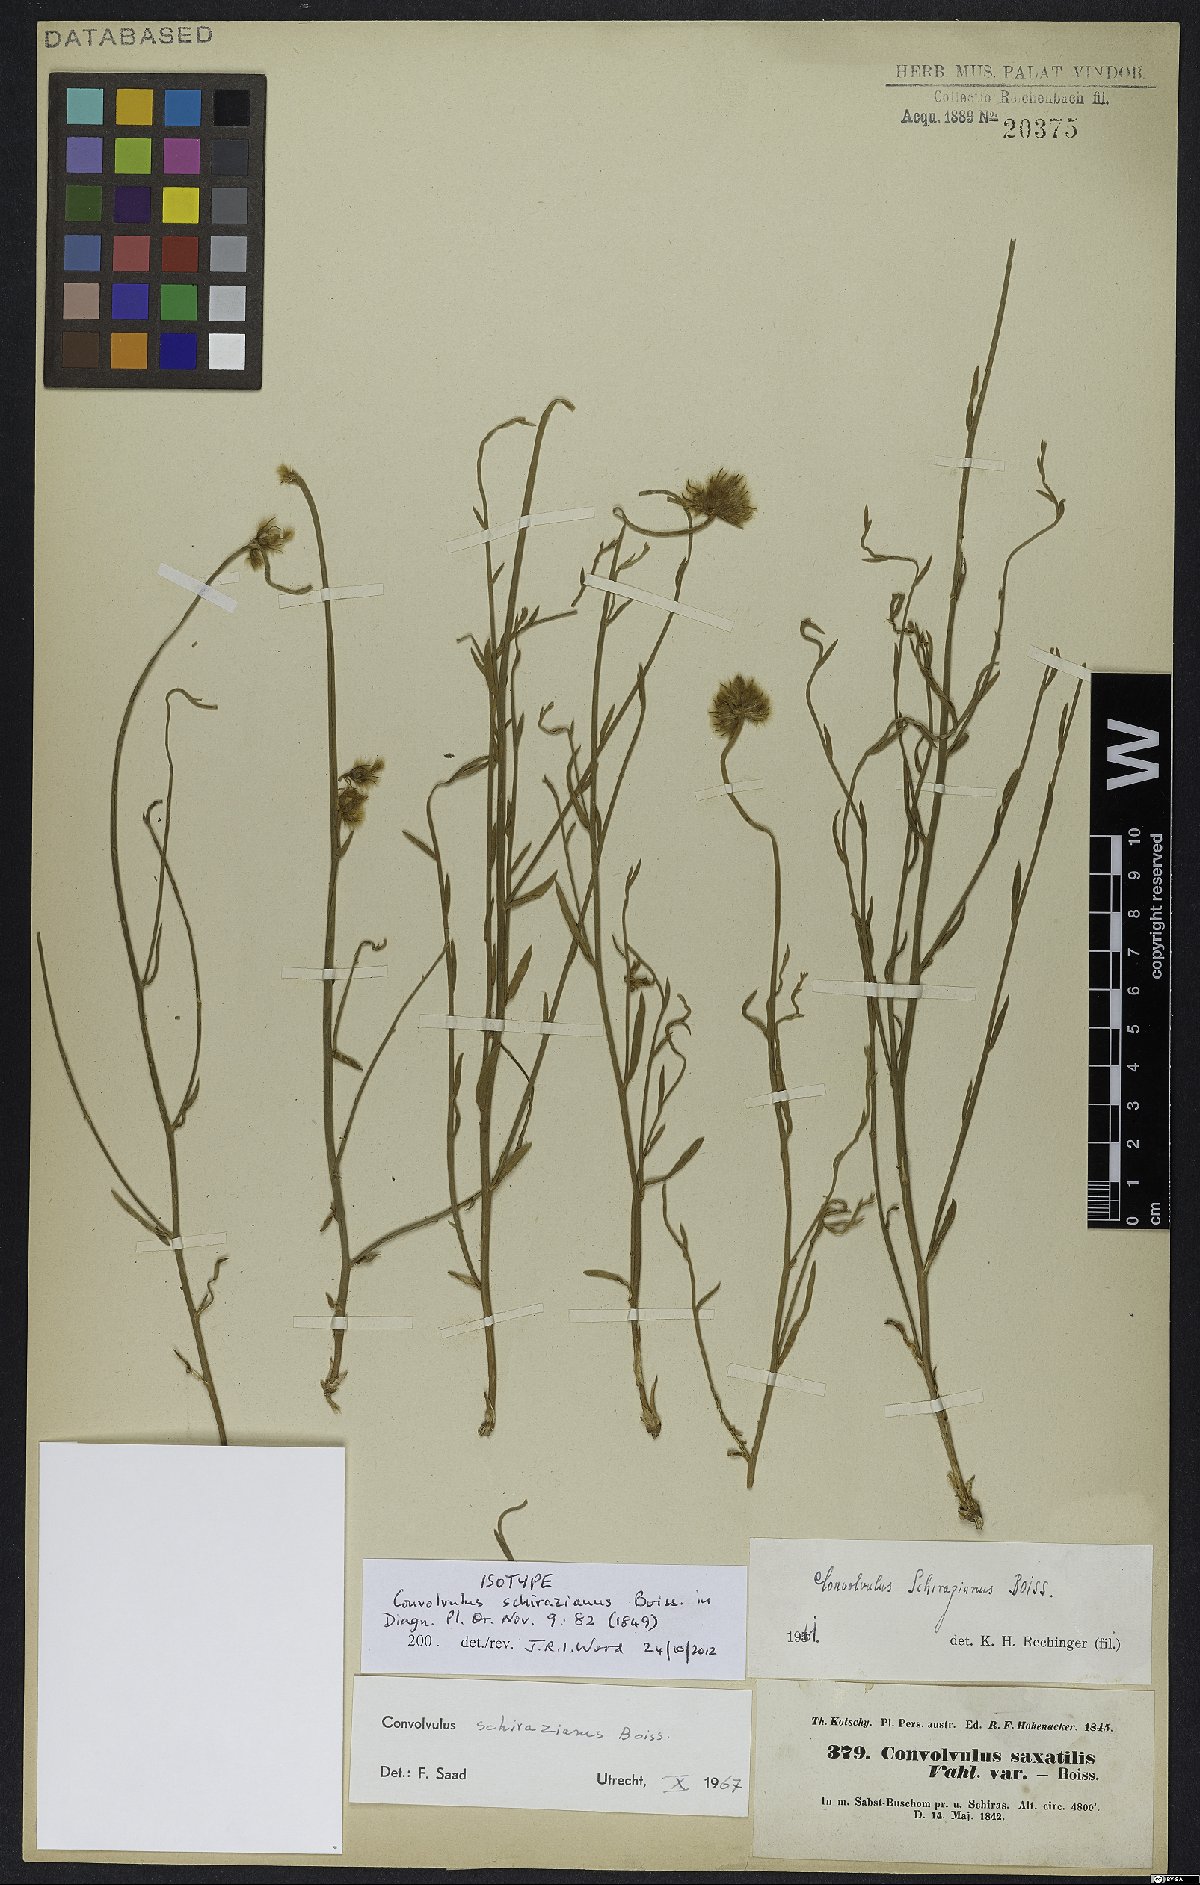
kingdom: Plantae
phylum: Tracheophyta
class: Magnoliopsida
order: Solanales
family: Convolvulaceae
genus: Convolvulus
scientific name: Convolvulus schirazianus
